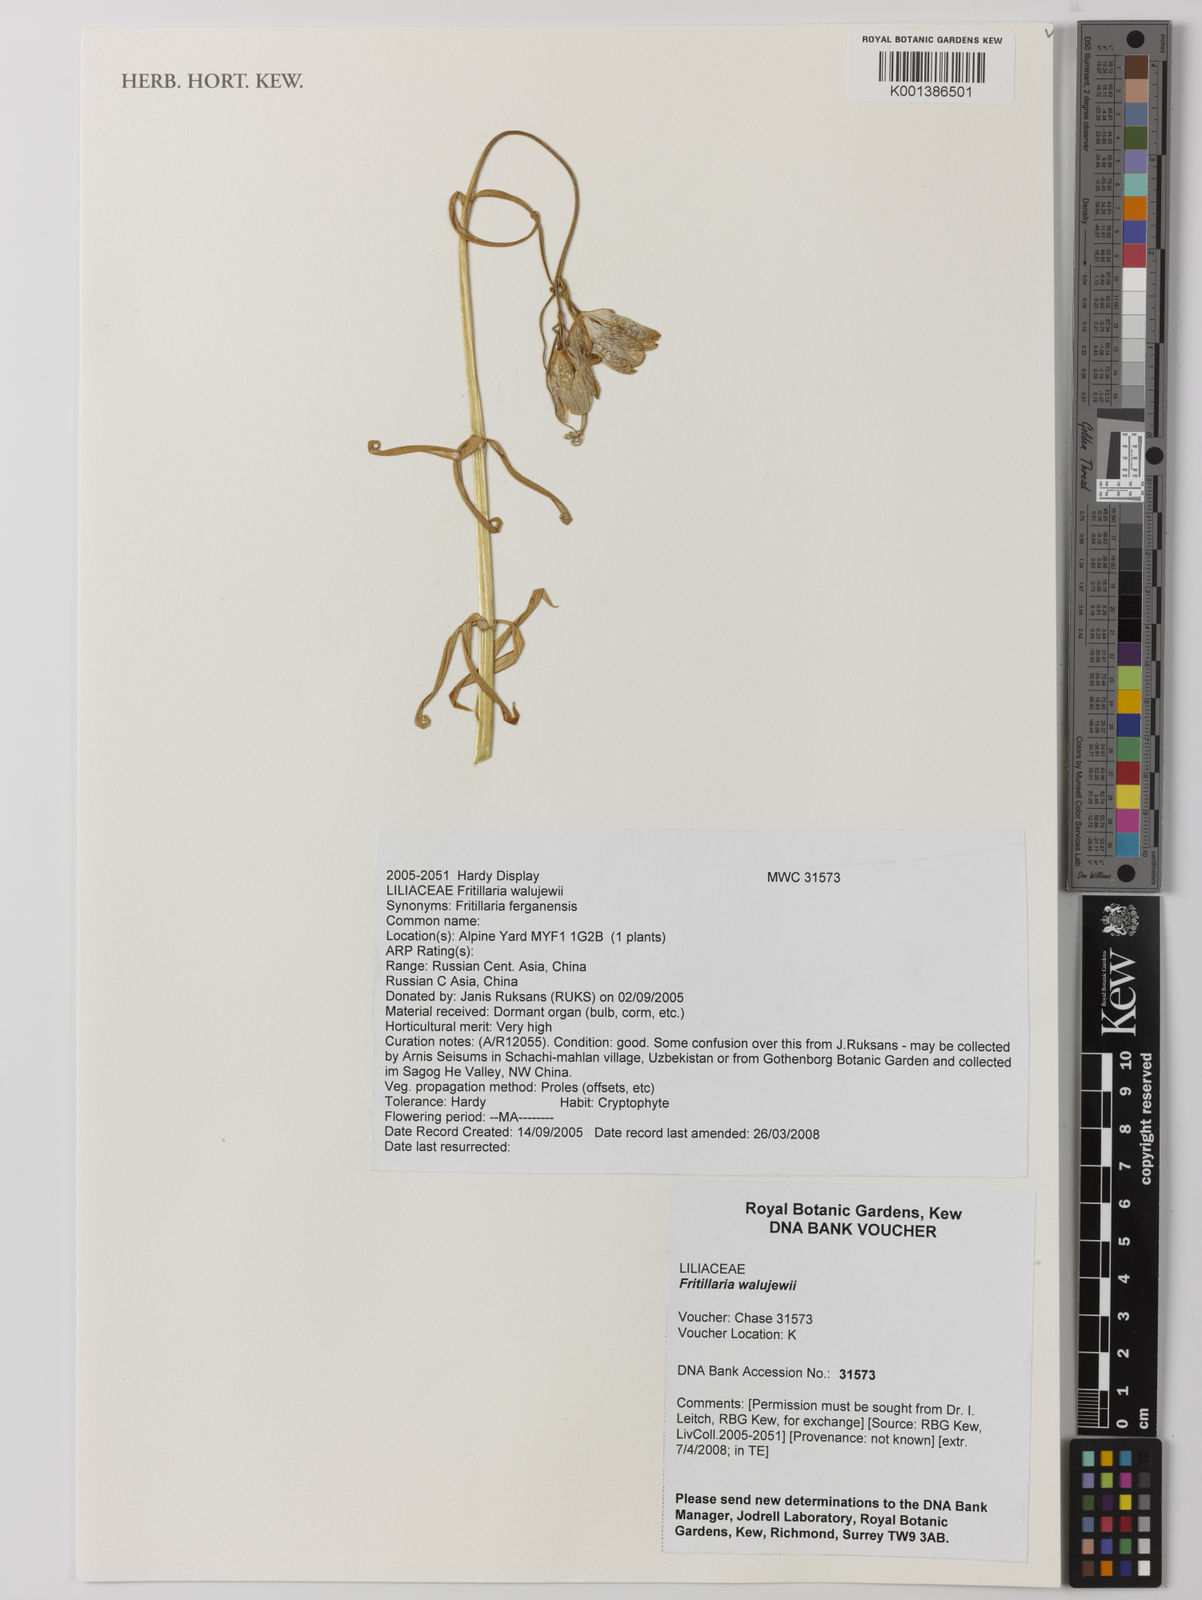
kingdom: Plantae
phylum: Tracheophyta
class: Liliopsida
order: Liliales
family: Liliaceae
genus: Fritillaria
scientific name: Fritillaria walujewii
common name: Sinkiang fritillaria
